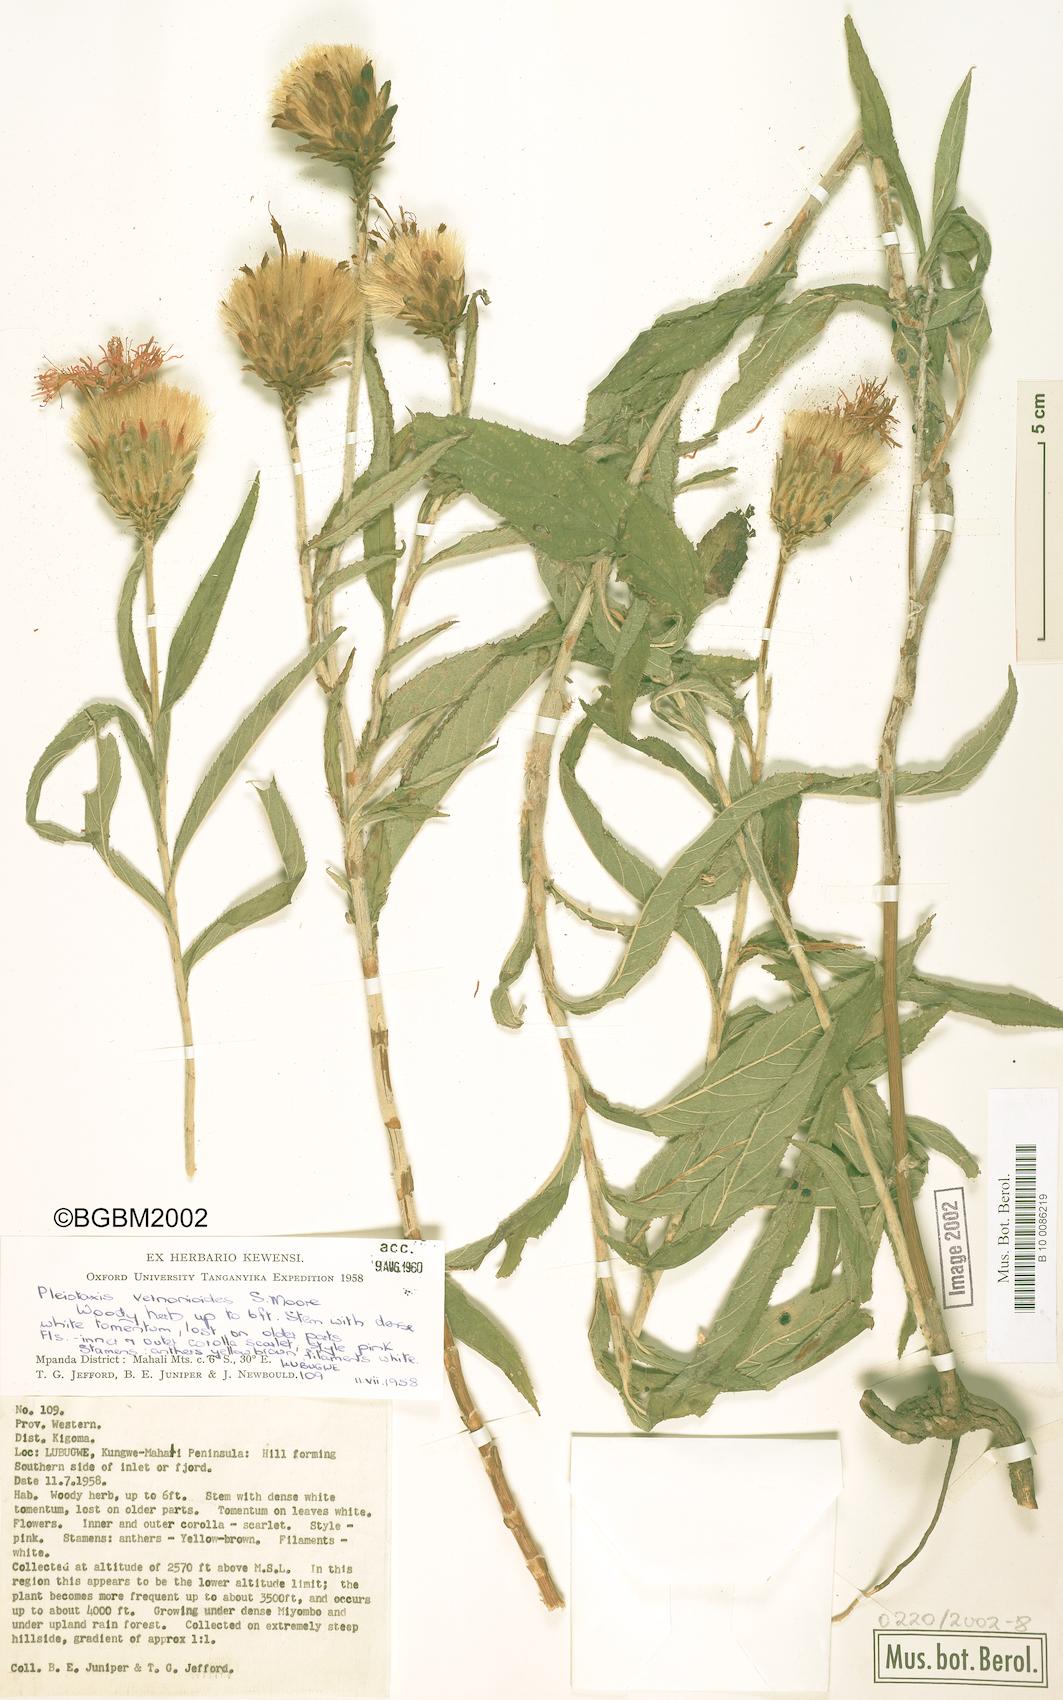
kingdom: Plantae
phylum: Tracheophyta
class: Magnoliopsida
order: Asterales
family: Asteraceae
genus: Pleiotaxis
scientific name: Pleiotaxis dewevrei
